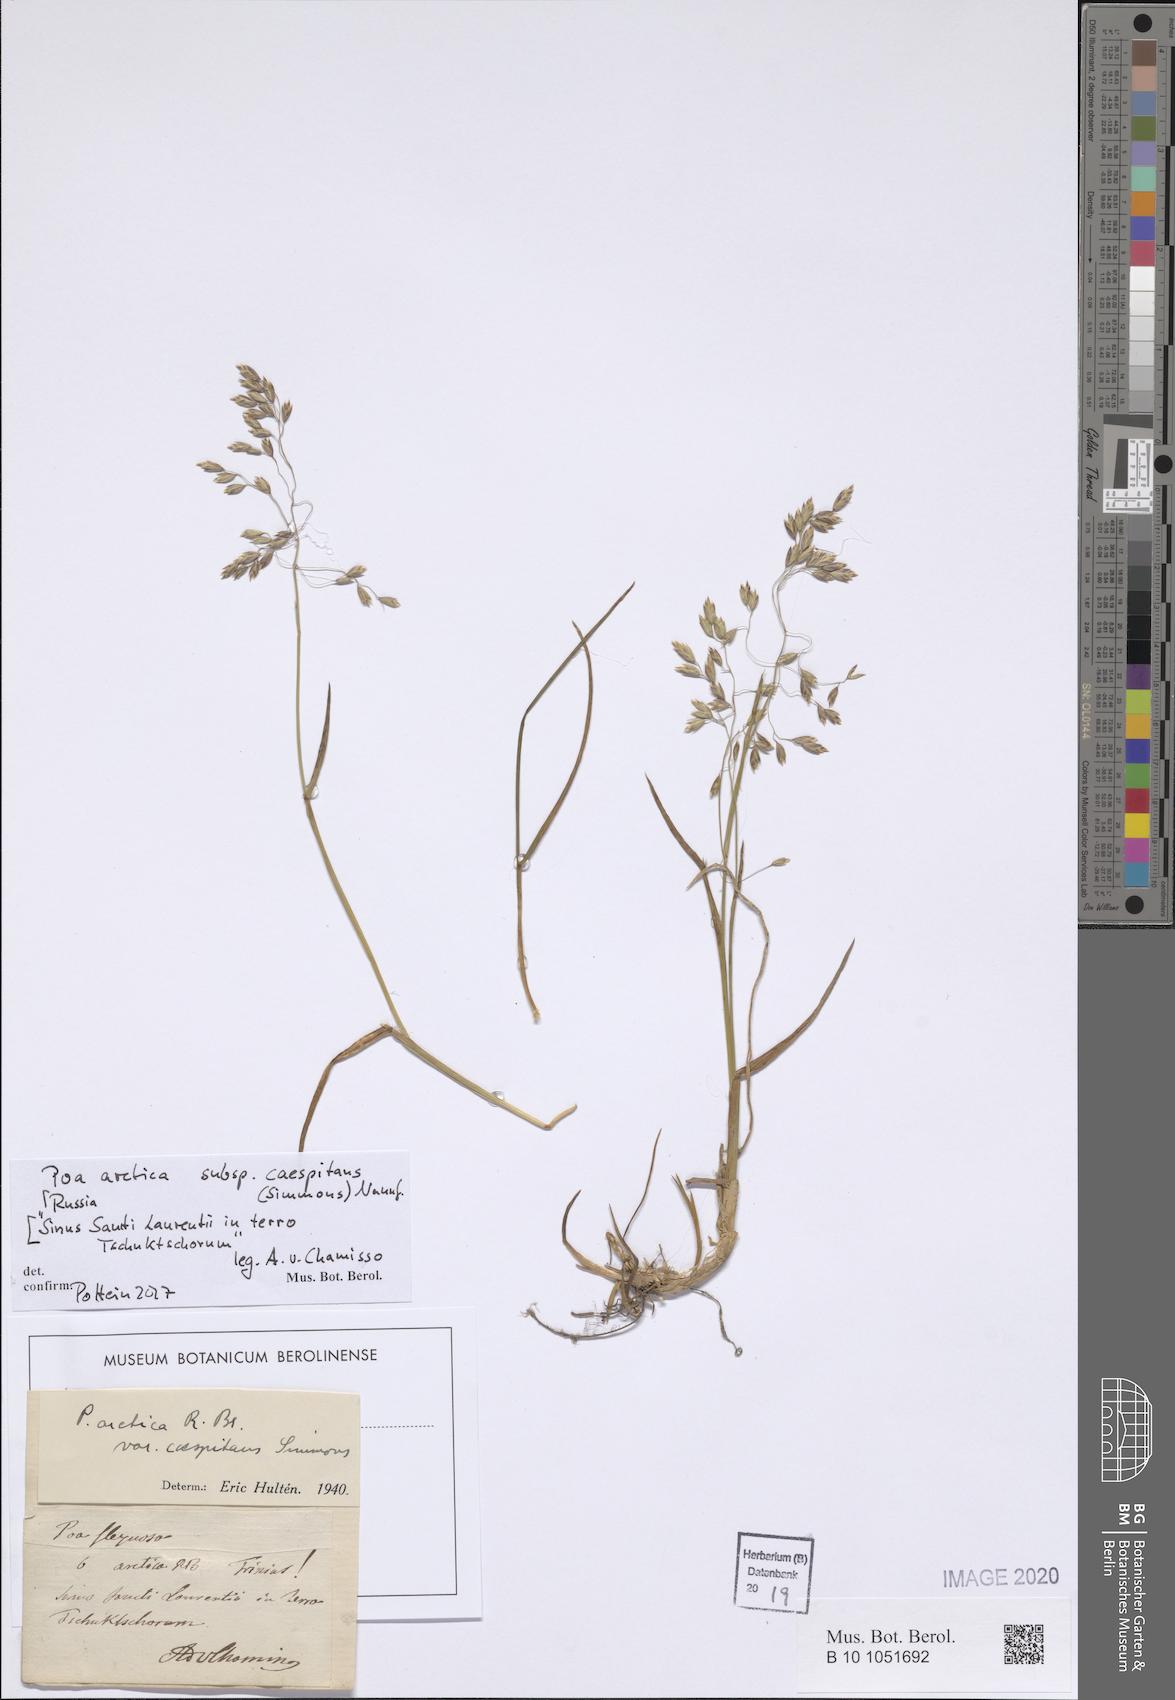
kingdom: Plantae
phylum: Tracheophyta
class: Liliopsida
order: Poales
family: Poaceae
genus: Poa
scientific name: Poa tolmatchewii
